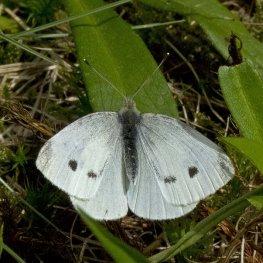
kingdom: Animalia
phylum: Arthropoda
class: Insecta
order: Lepidoptera
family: Pieridae
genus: Pieris
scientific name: Pieris rapae
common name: Cabbage White
